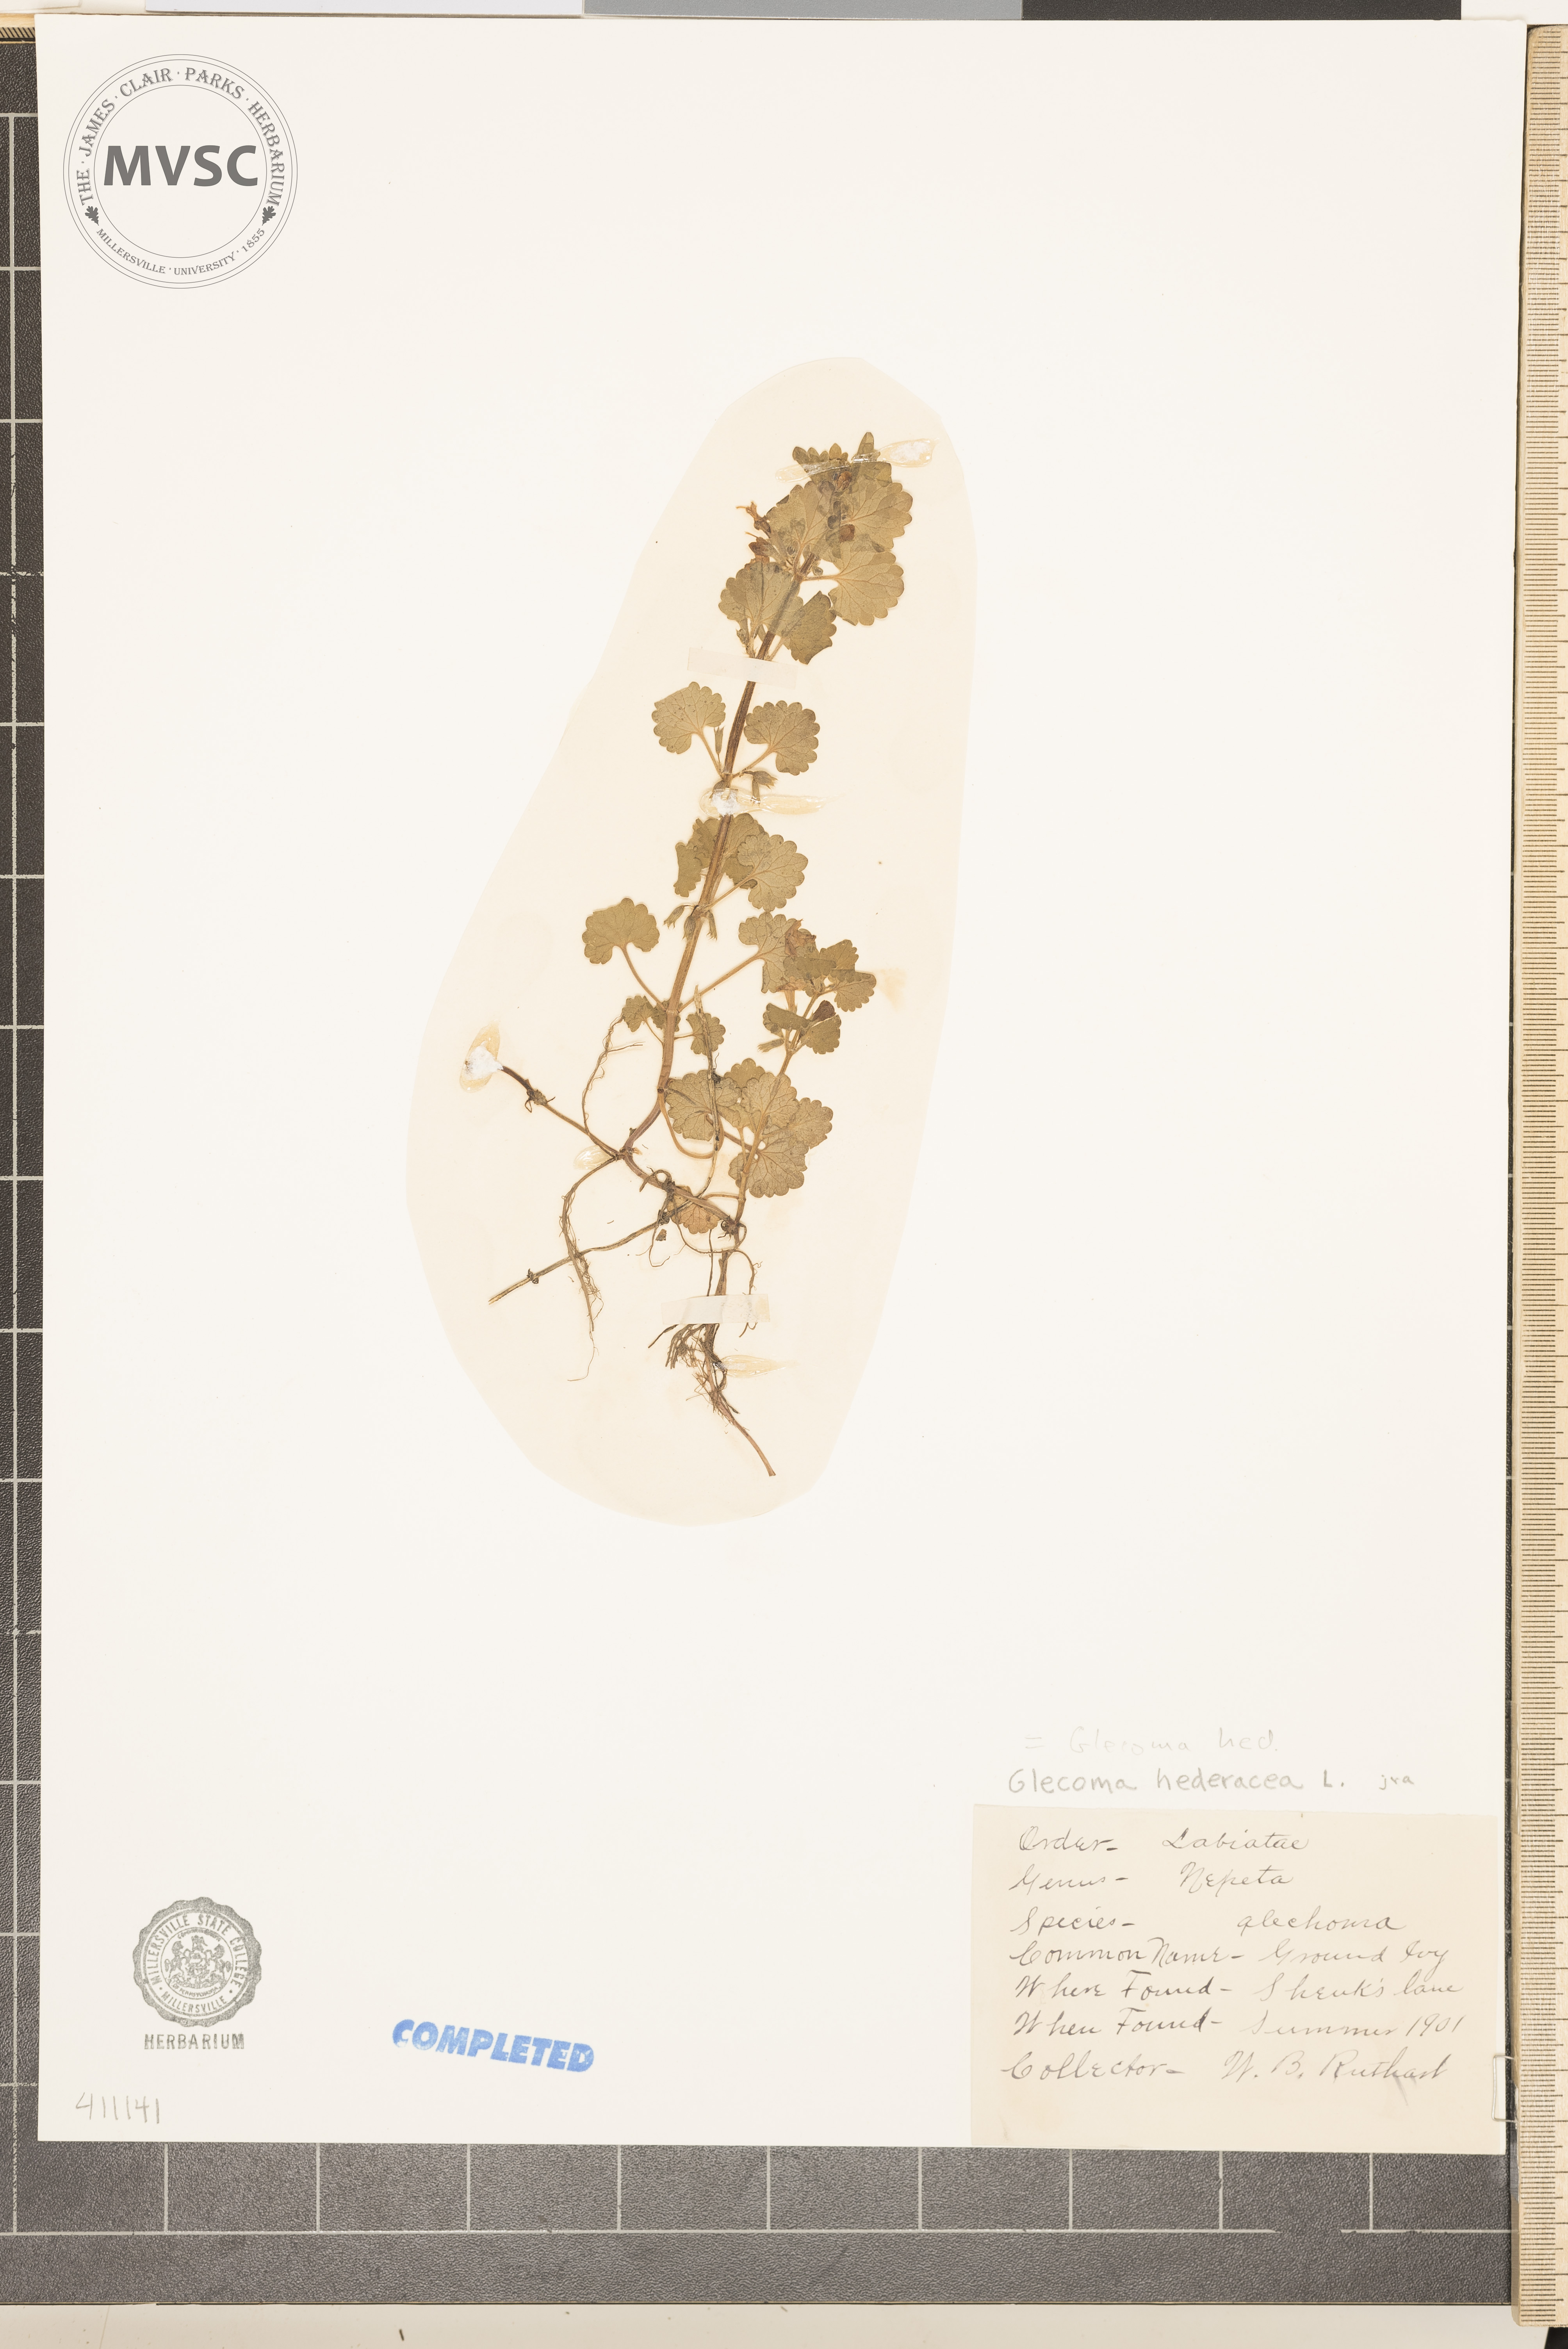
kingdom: Plantae
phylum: Tracheophyta
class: Magnoliopsida
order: Lamiales
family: Lamiaceae
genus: Glechoma
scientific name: Glechoma hederacea
